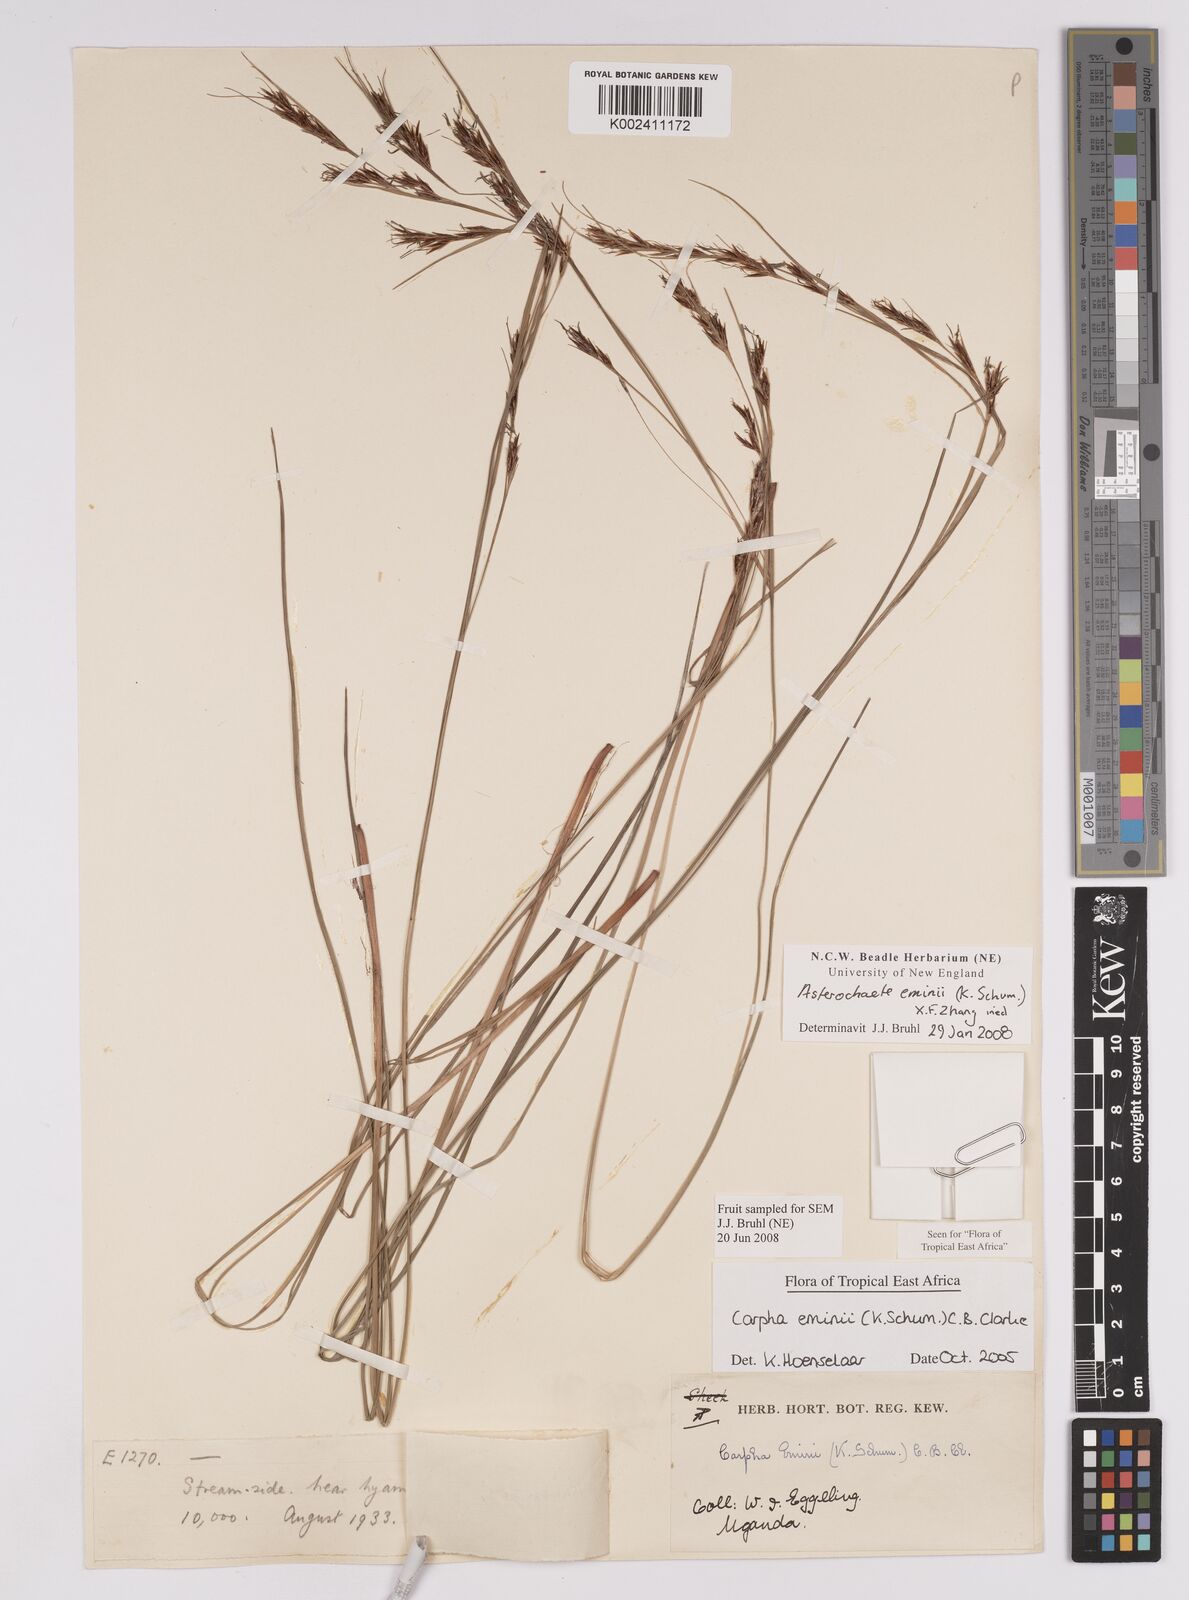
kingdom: Plantae
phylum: Tracheophyta
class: Liliopsida
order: Poales
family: Cyperaceae
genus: Carpha
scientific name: Carpha eminii
